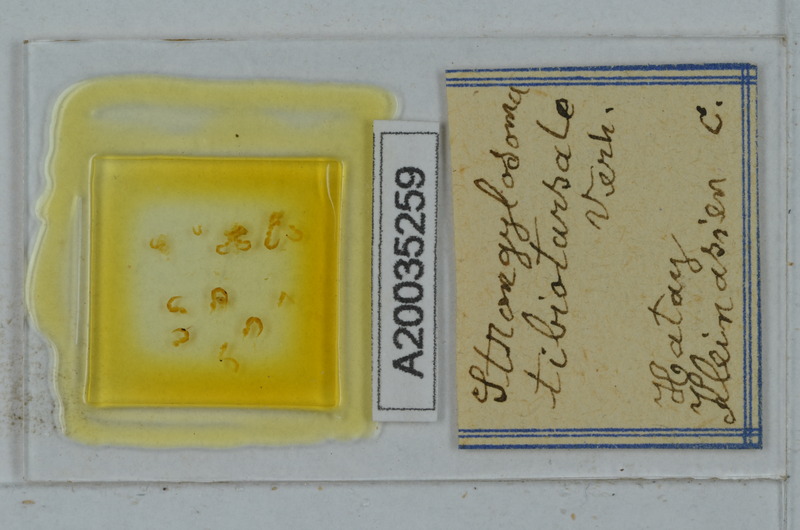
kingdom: Animalia
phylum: Arthropoda
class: Diplopoda
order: Polydesmida
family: Paradoxosomatidae
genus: Lohmanderodesmus
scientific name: Lohmanderodesmus galeatus
